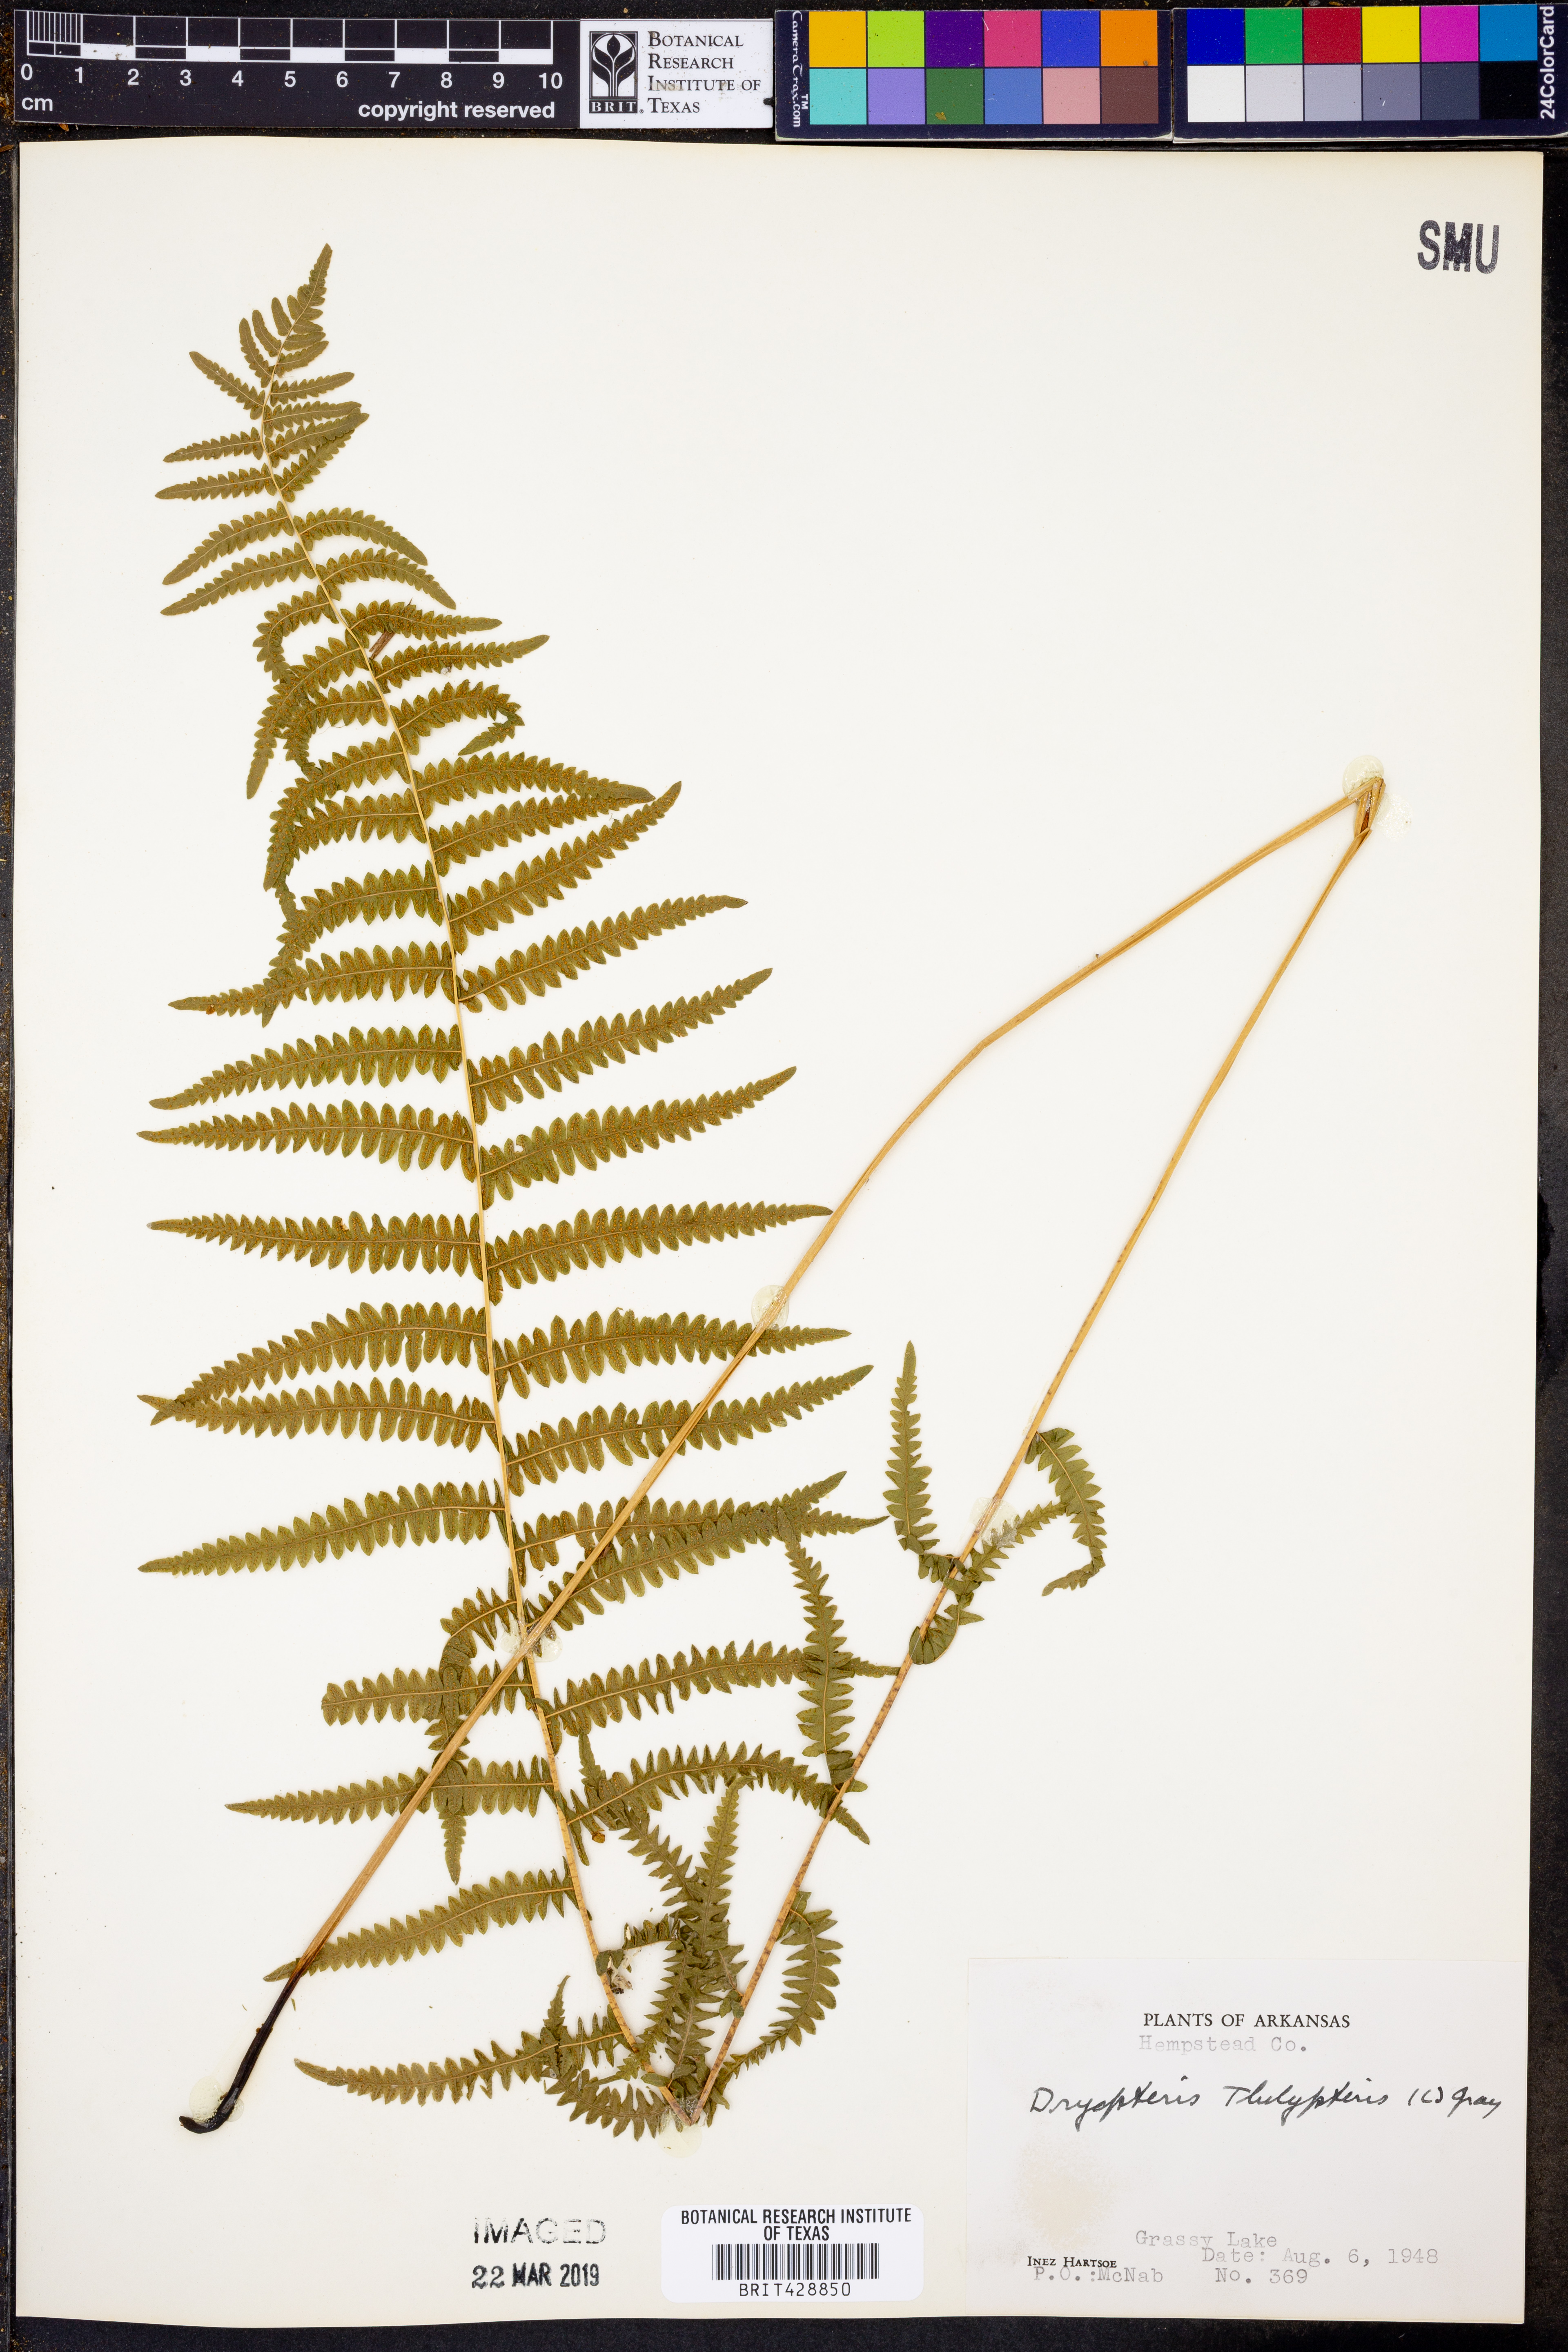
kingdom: Plantae
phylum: Tracheophyta
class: Polypodiopsida
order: Polypodiales
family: Thelypteridaceae
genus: Thelypteris
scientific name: Thelypteris palustris
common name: Marsh fern
